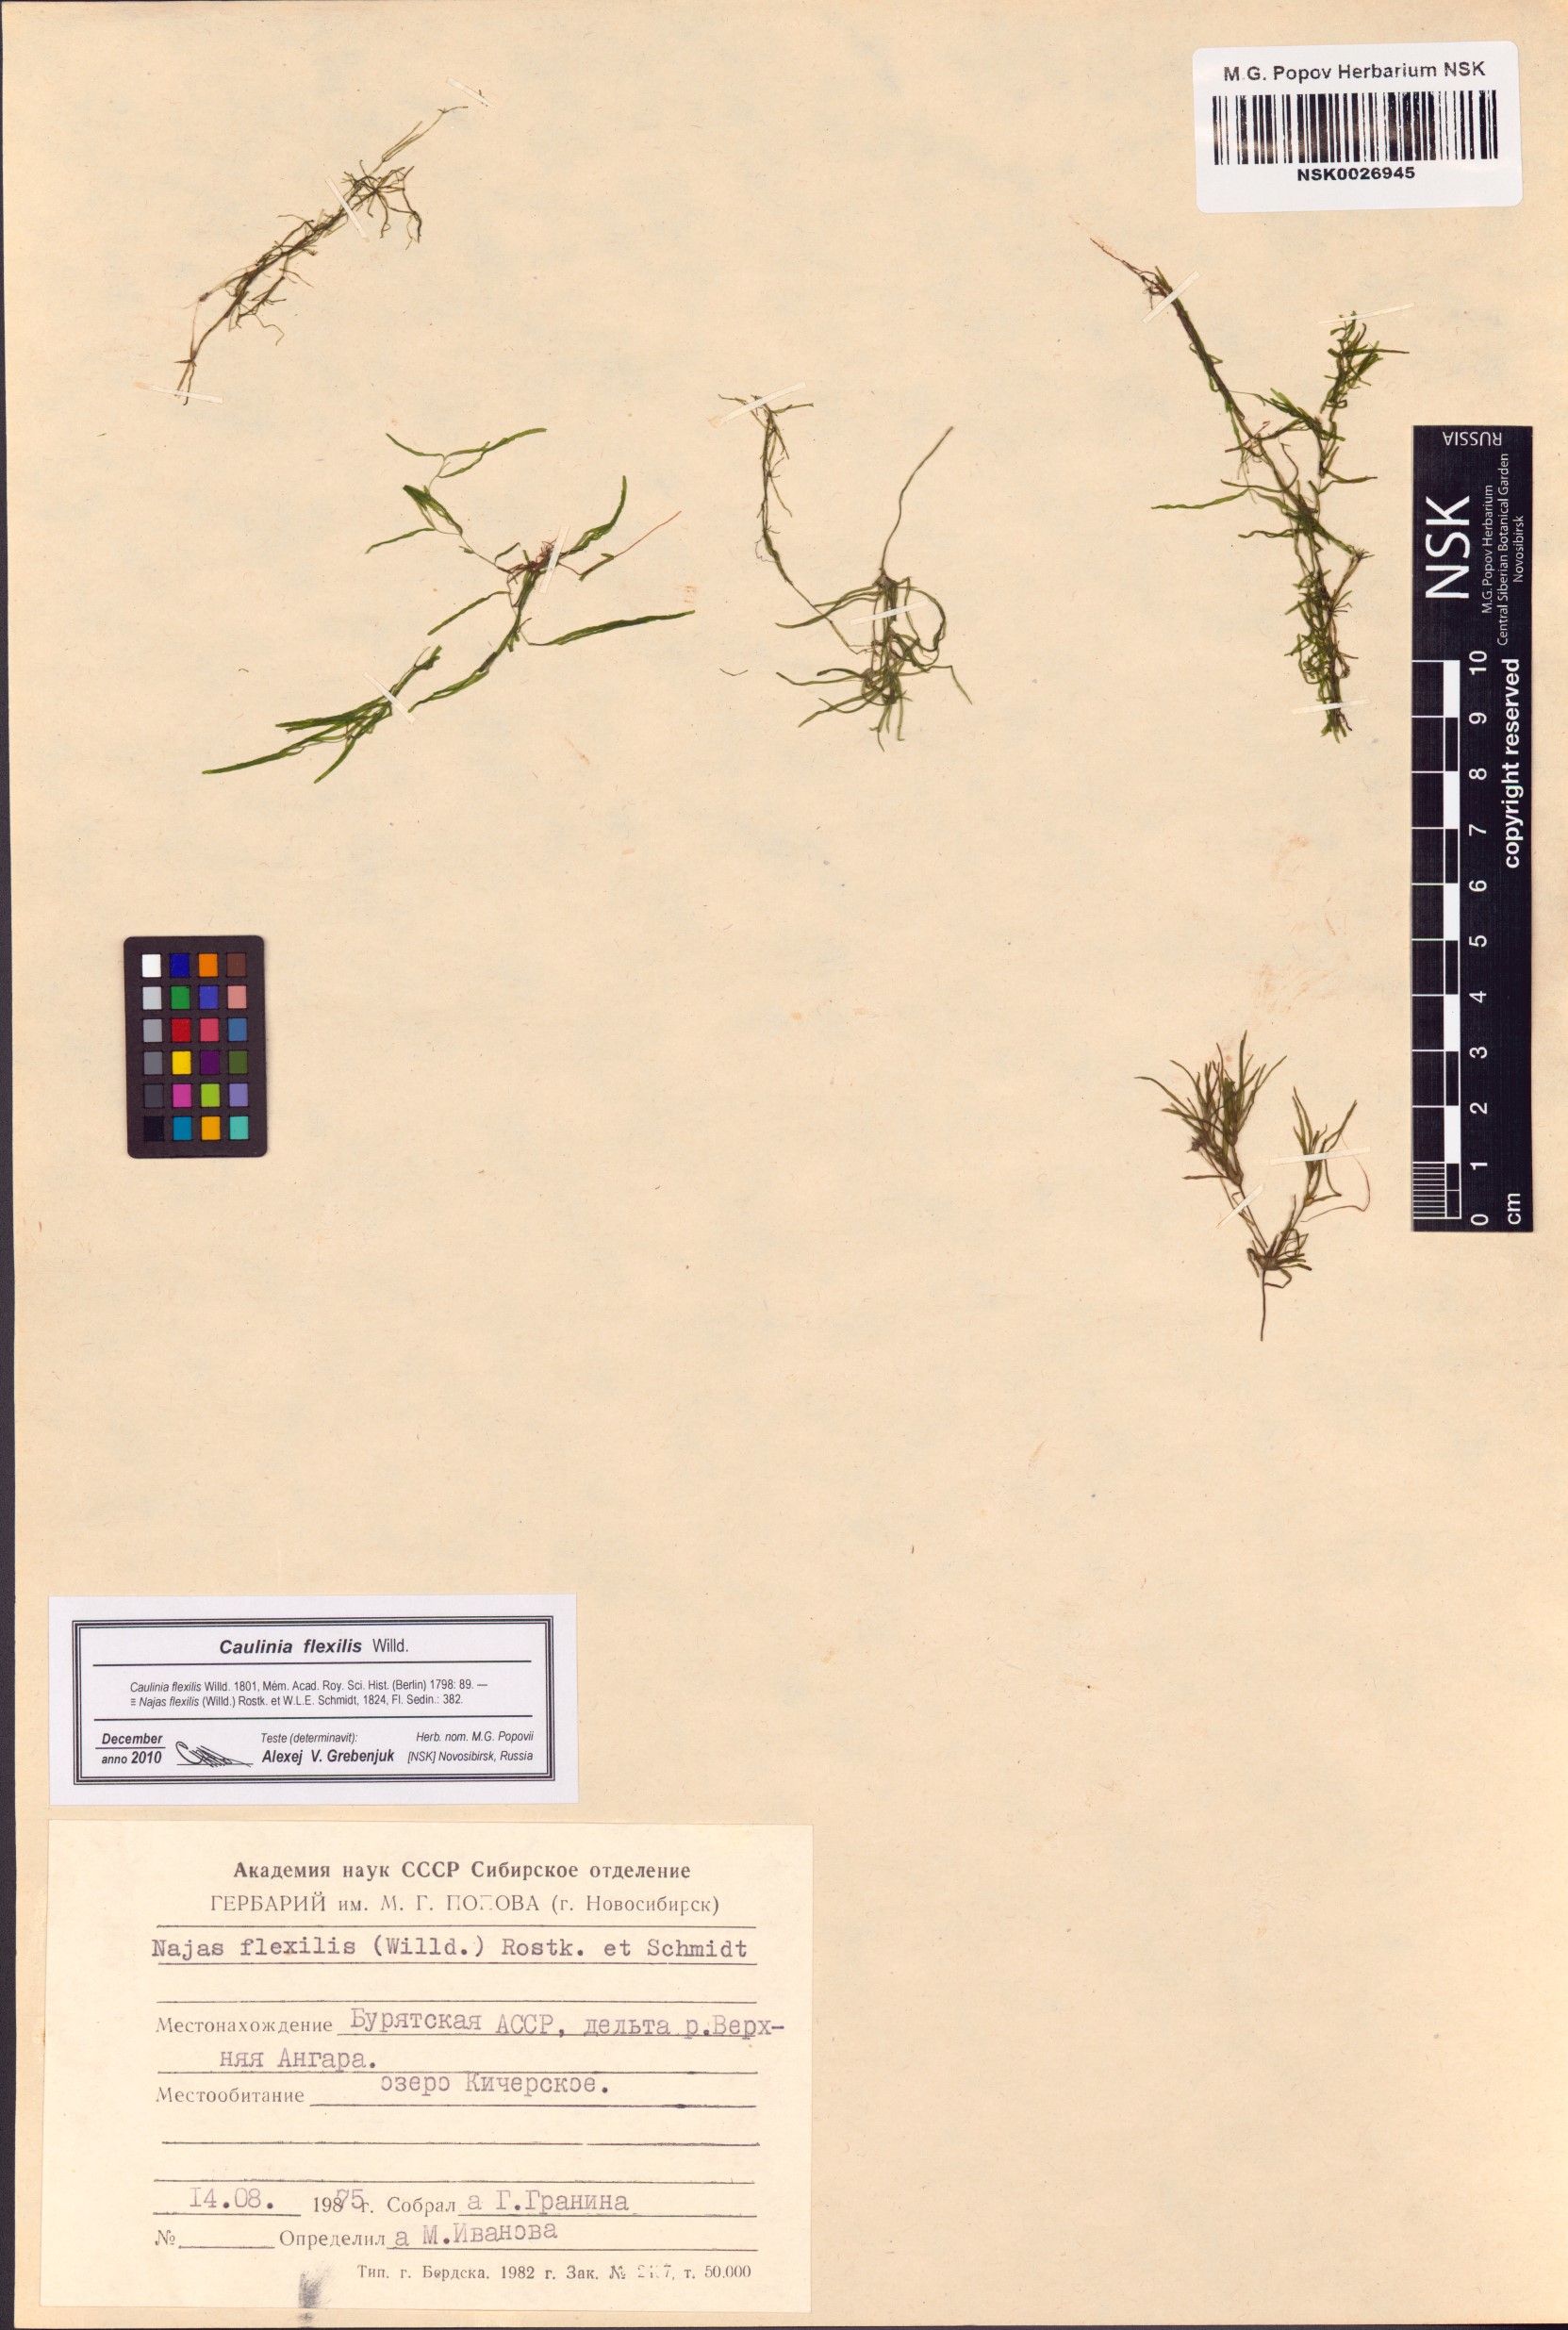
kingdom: Plantae
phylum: Tracheophyta
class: Liliopsida
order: Alismatales
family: Hydrocharitaceae
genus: Najas
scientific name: Najas flexilis
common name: Slender naiad
